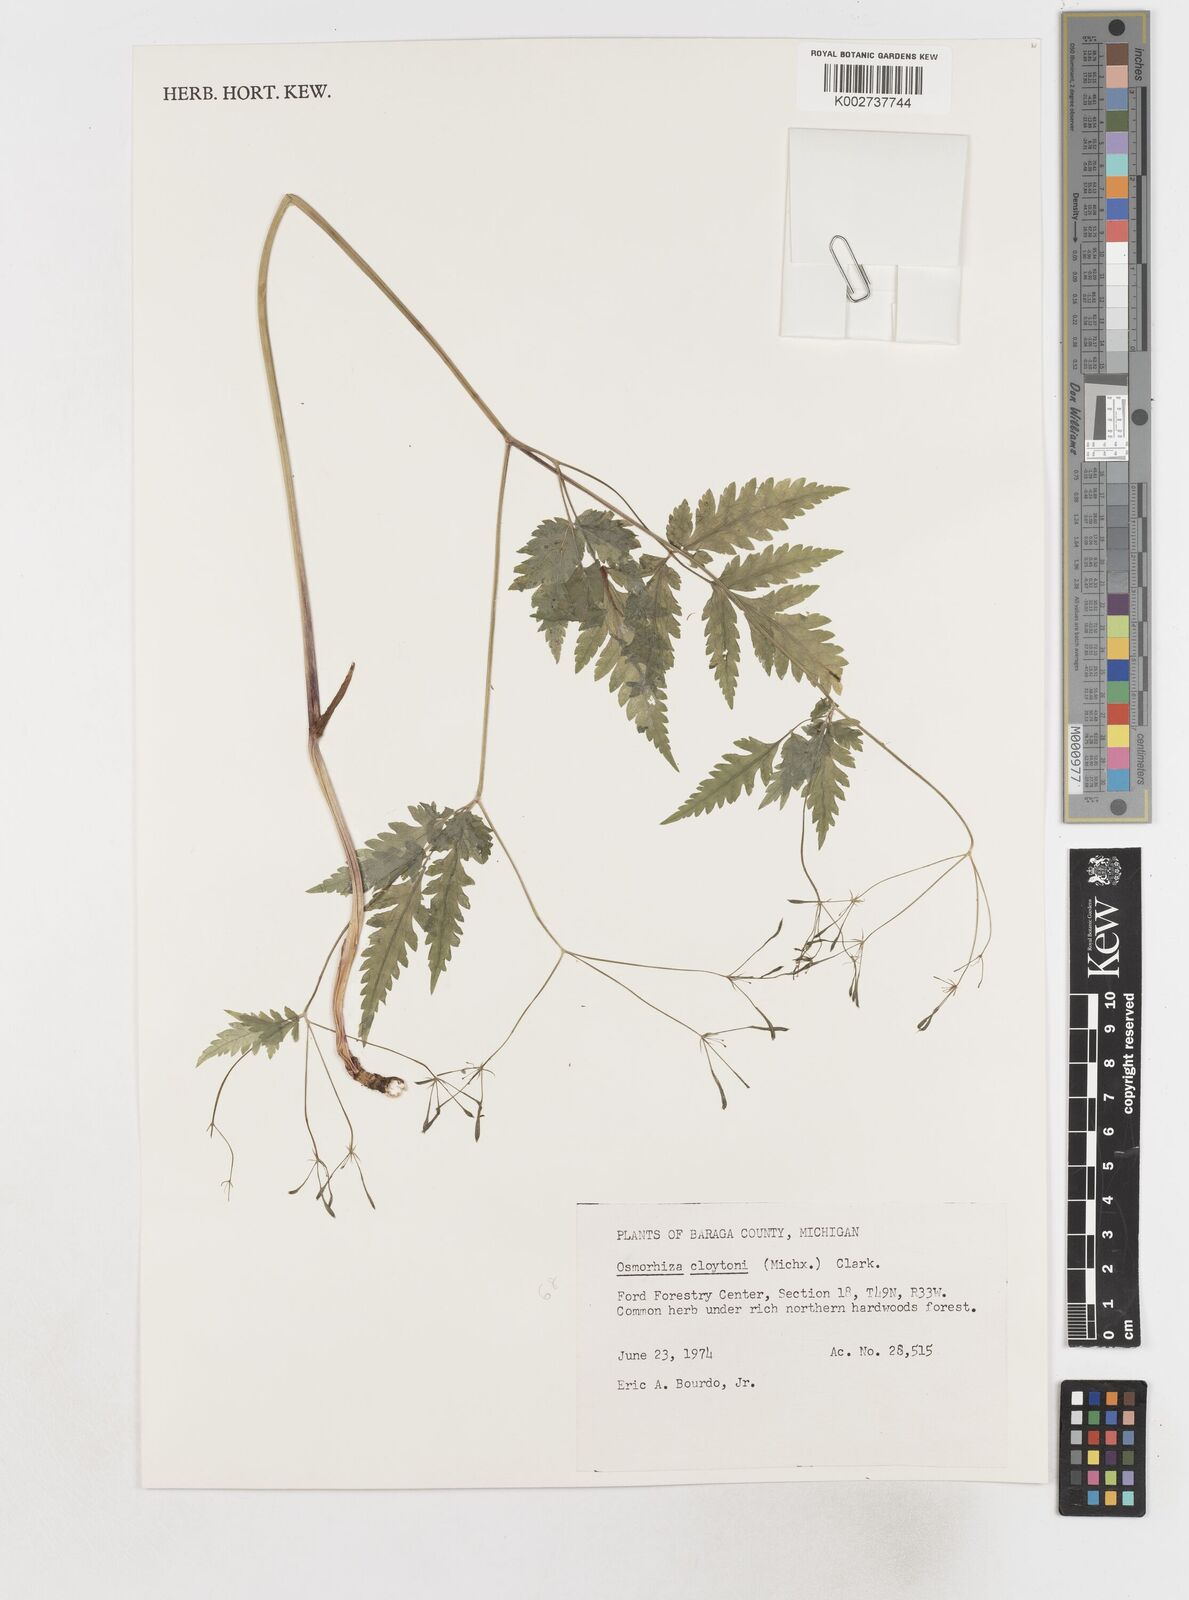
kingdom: Plantae
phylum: Tracheophyta
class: Magnoliopsida
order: Apiales
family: Apiaceae
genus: Osmorhiza
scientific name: Osmorhiza claytonii
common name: Hairy sweet cicely
